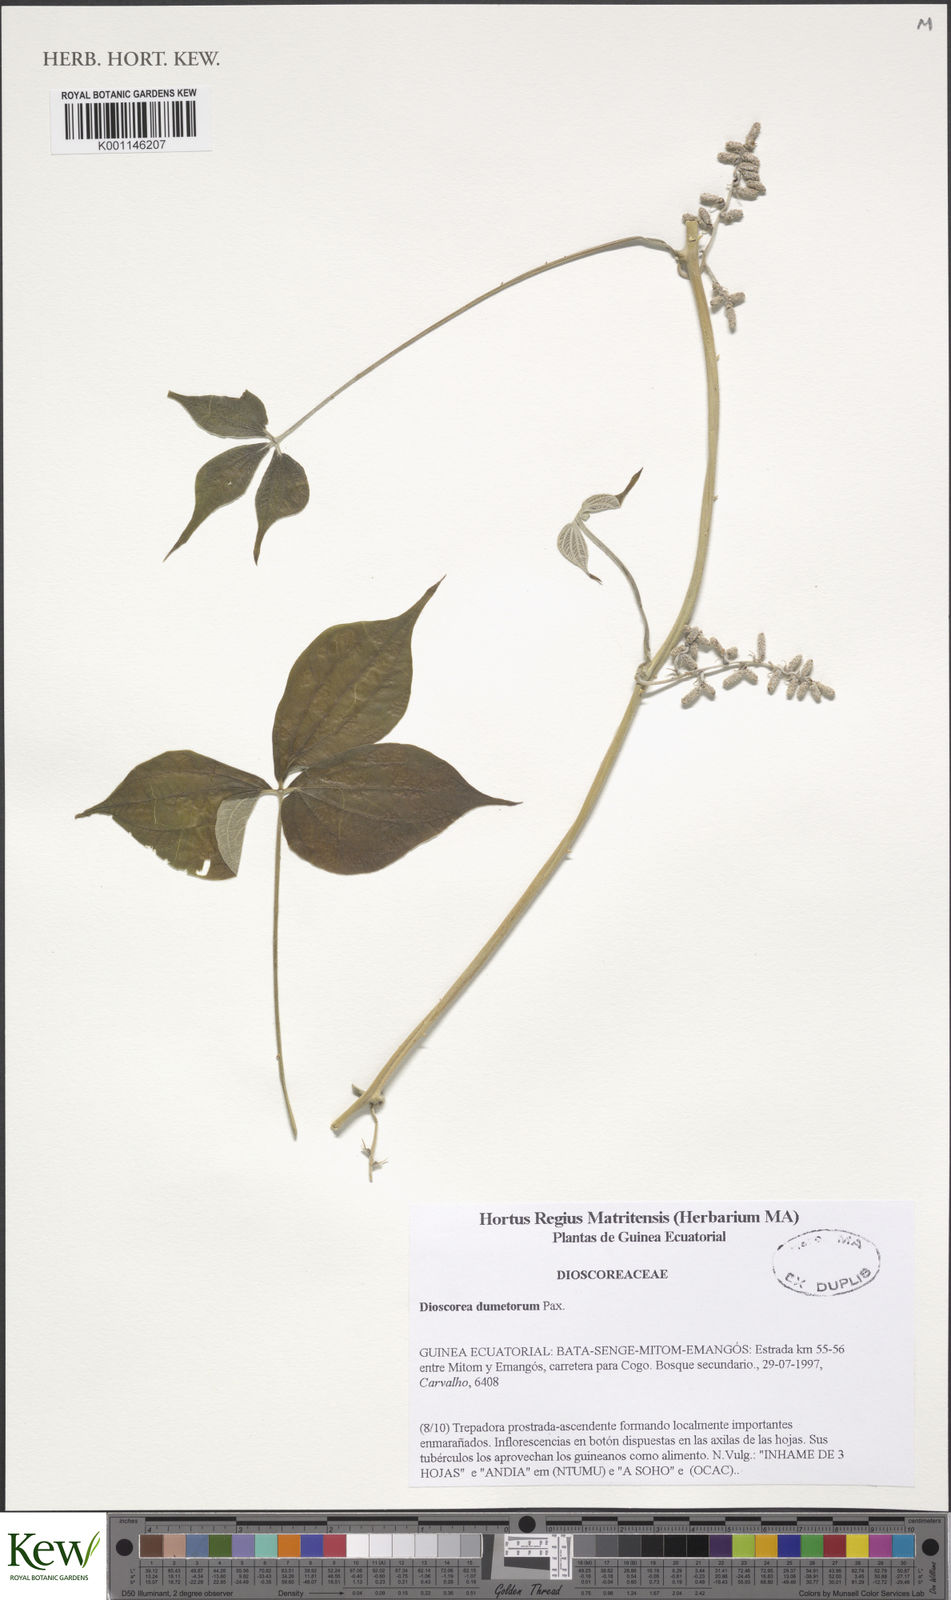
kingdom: Plantae
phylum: Tracheophyta
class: Liliopsida
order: Dioscoreales
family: Dioscoreaceae
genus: Dioscorea
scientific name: Dioscorea dumetorum
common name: African bitter yam
